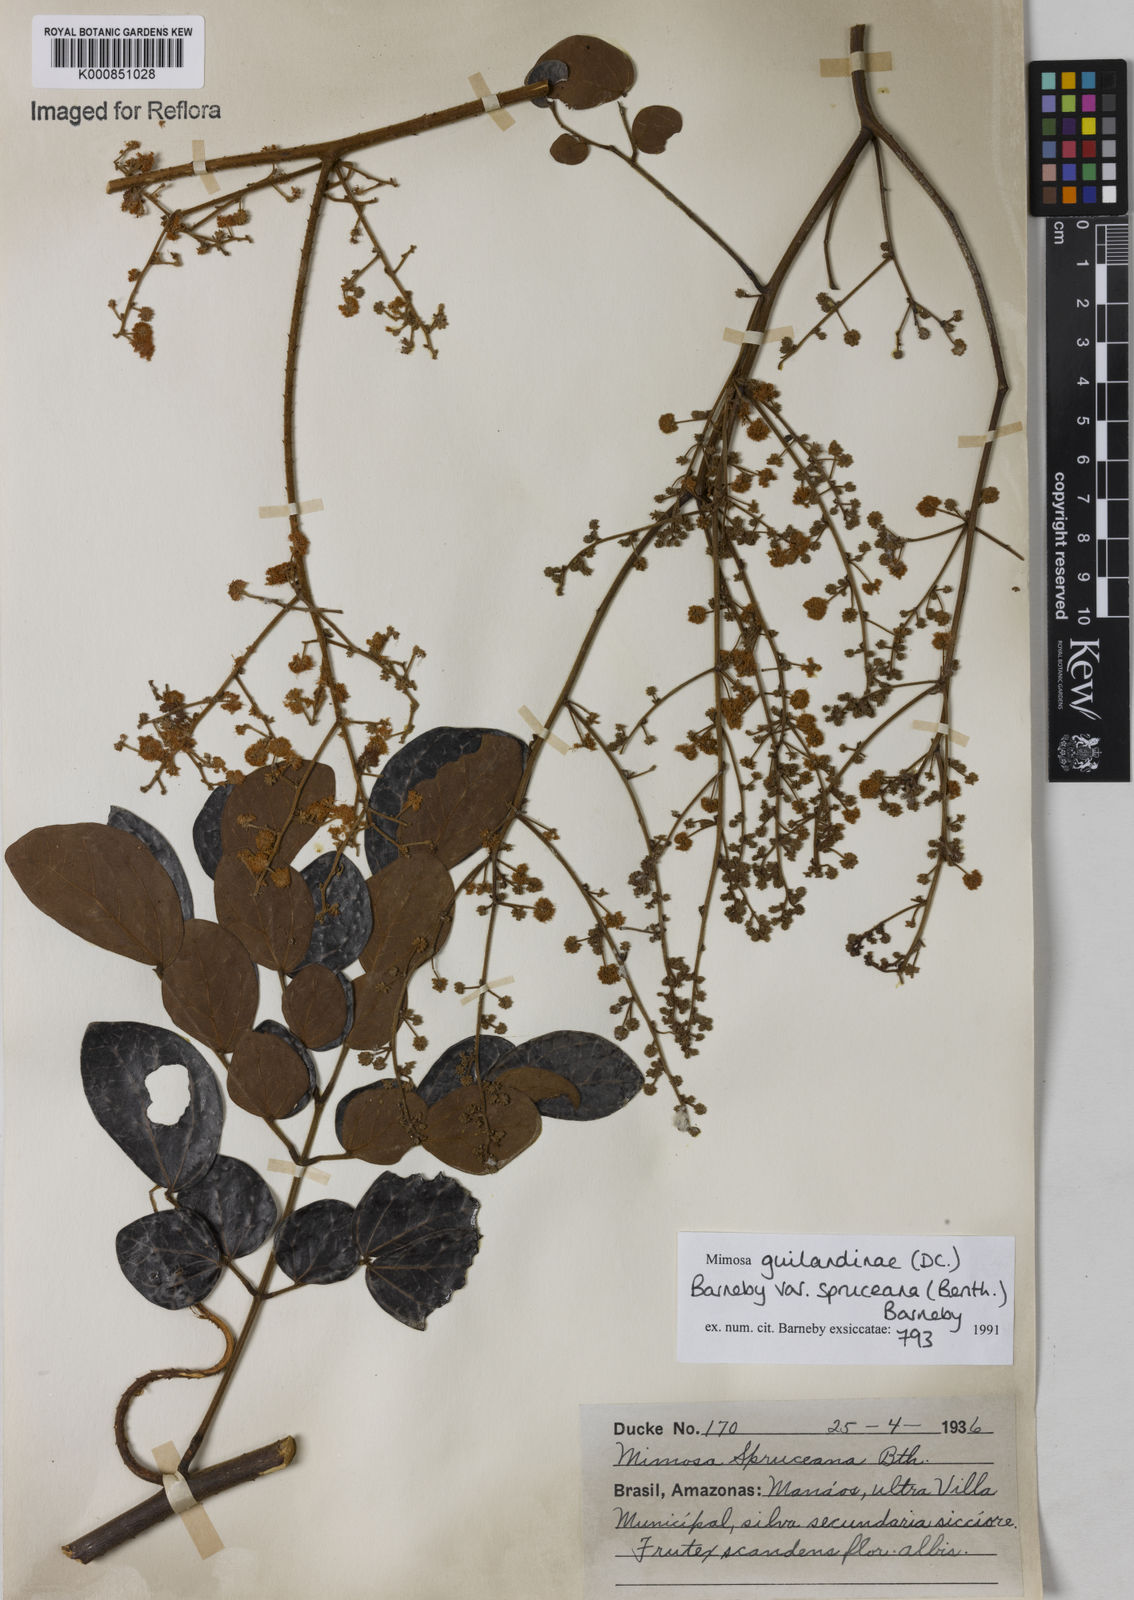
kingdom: Plantae
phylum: Tracheophyta
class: Magnoliopsida
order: Fabales
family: Fabaceae
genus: Mimosa
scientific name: Mimosa guilandinae
